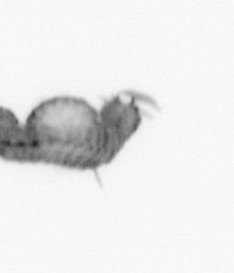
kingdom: Animalia
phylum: Annelida
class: Polychaeta
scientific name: Polychaeta
